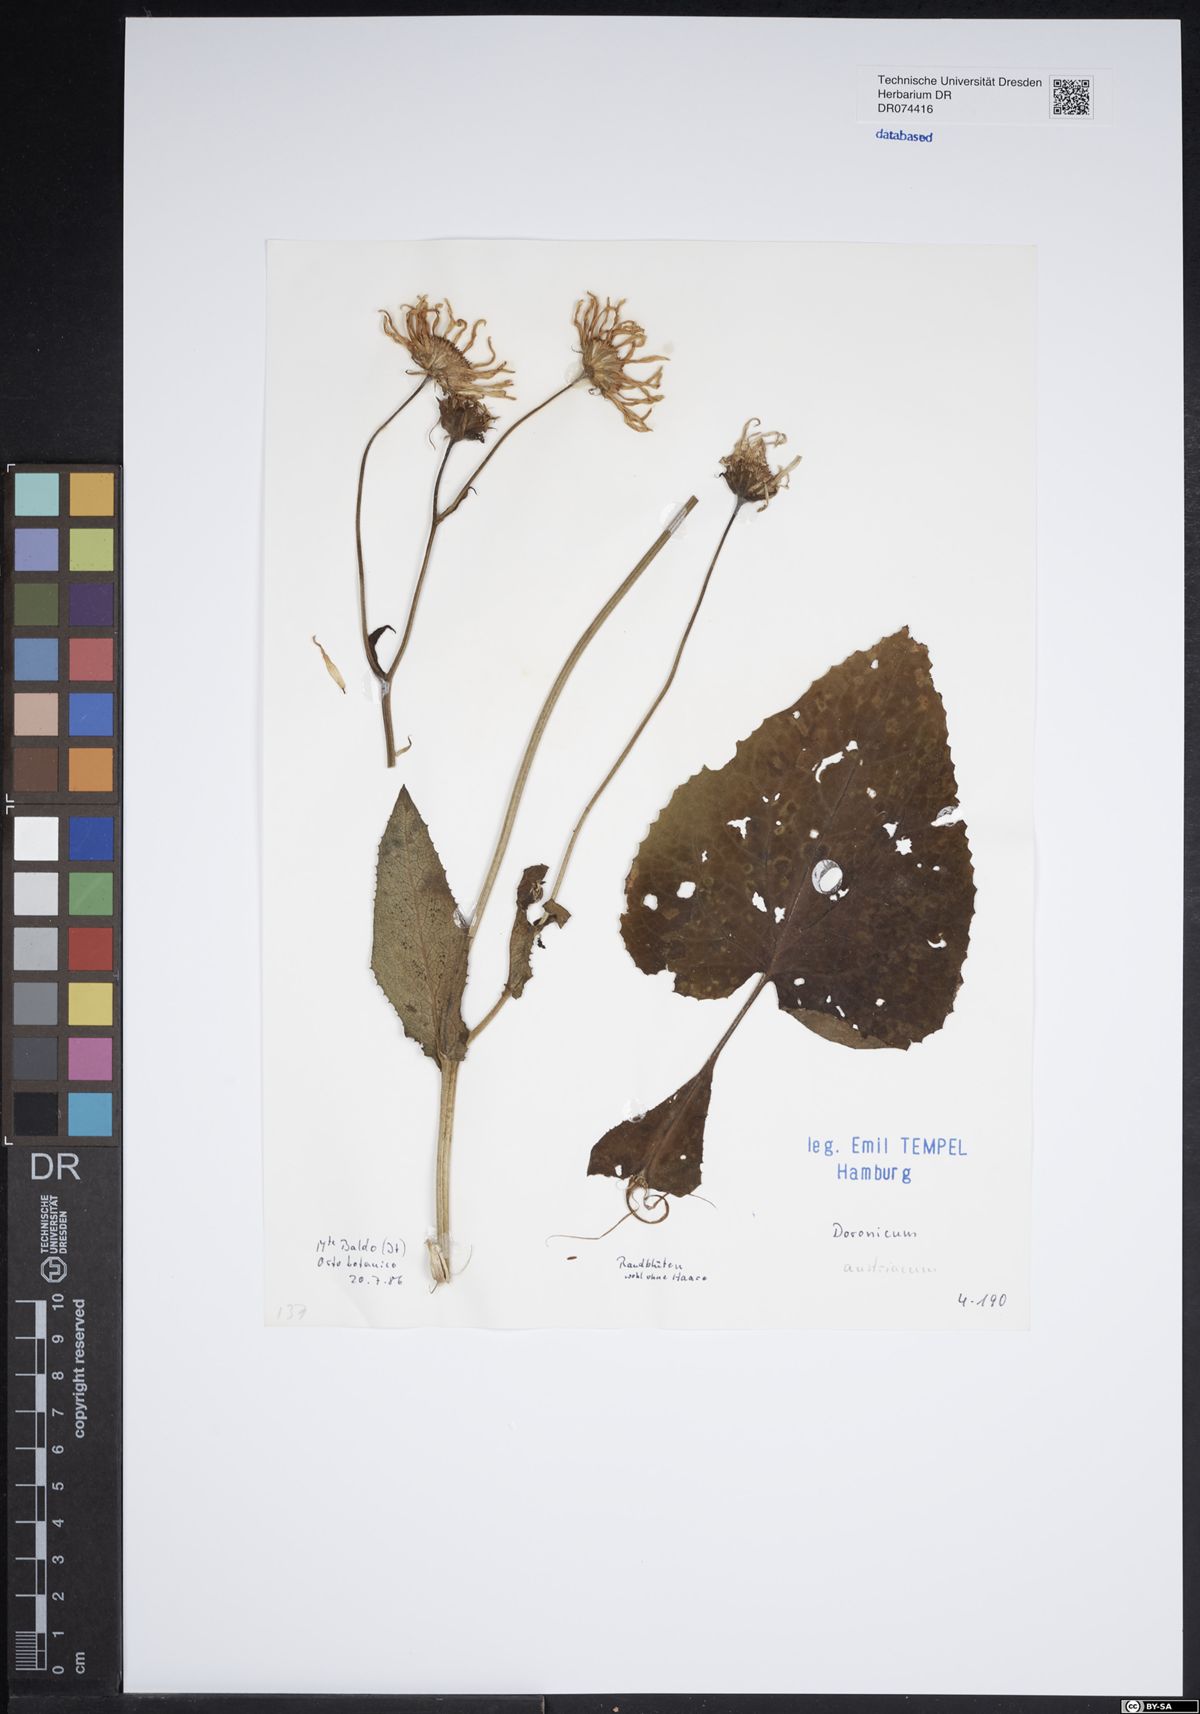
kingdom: Plantae
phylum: Tracheophyta
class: Magnoliopsida
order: Asterales
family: Asteraceae
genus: Doronicum
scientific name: Doronicum austriacum
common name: Austrian leopard's-bane
